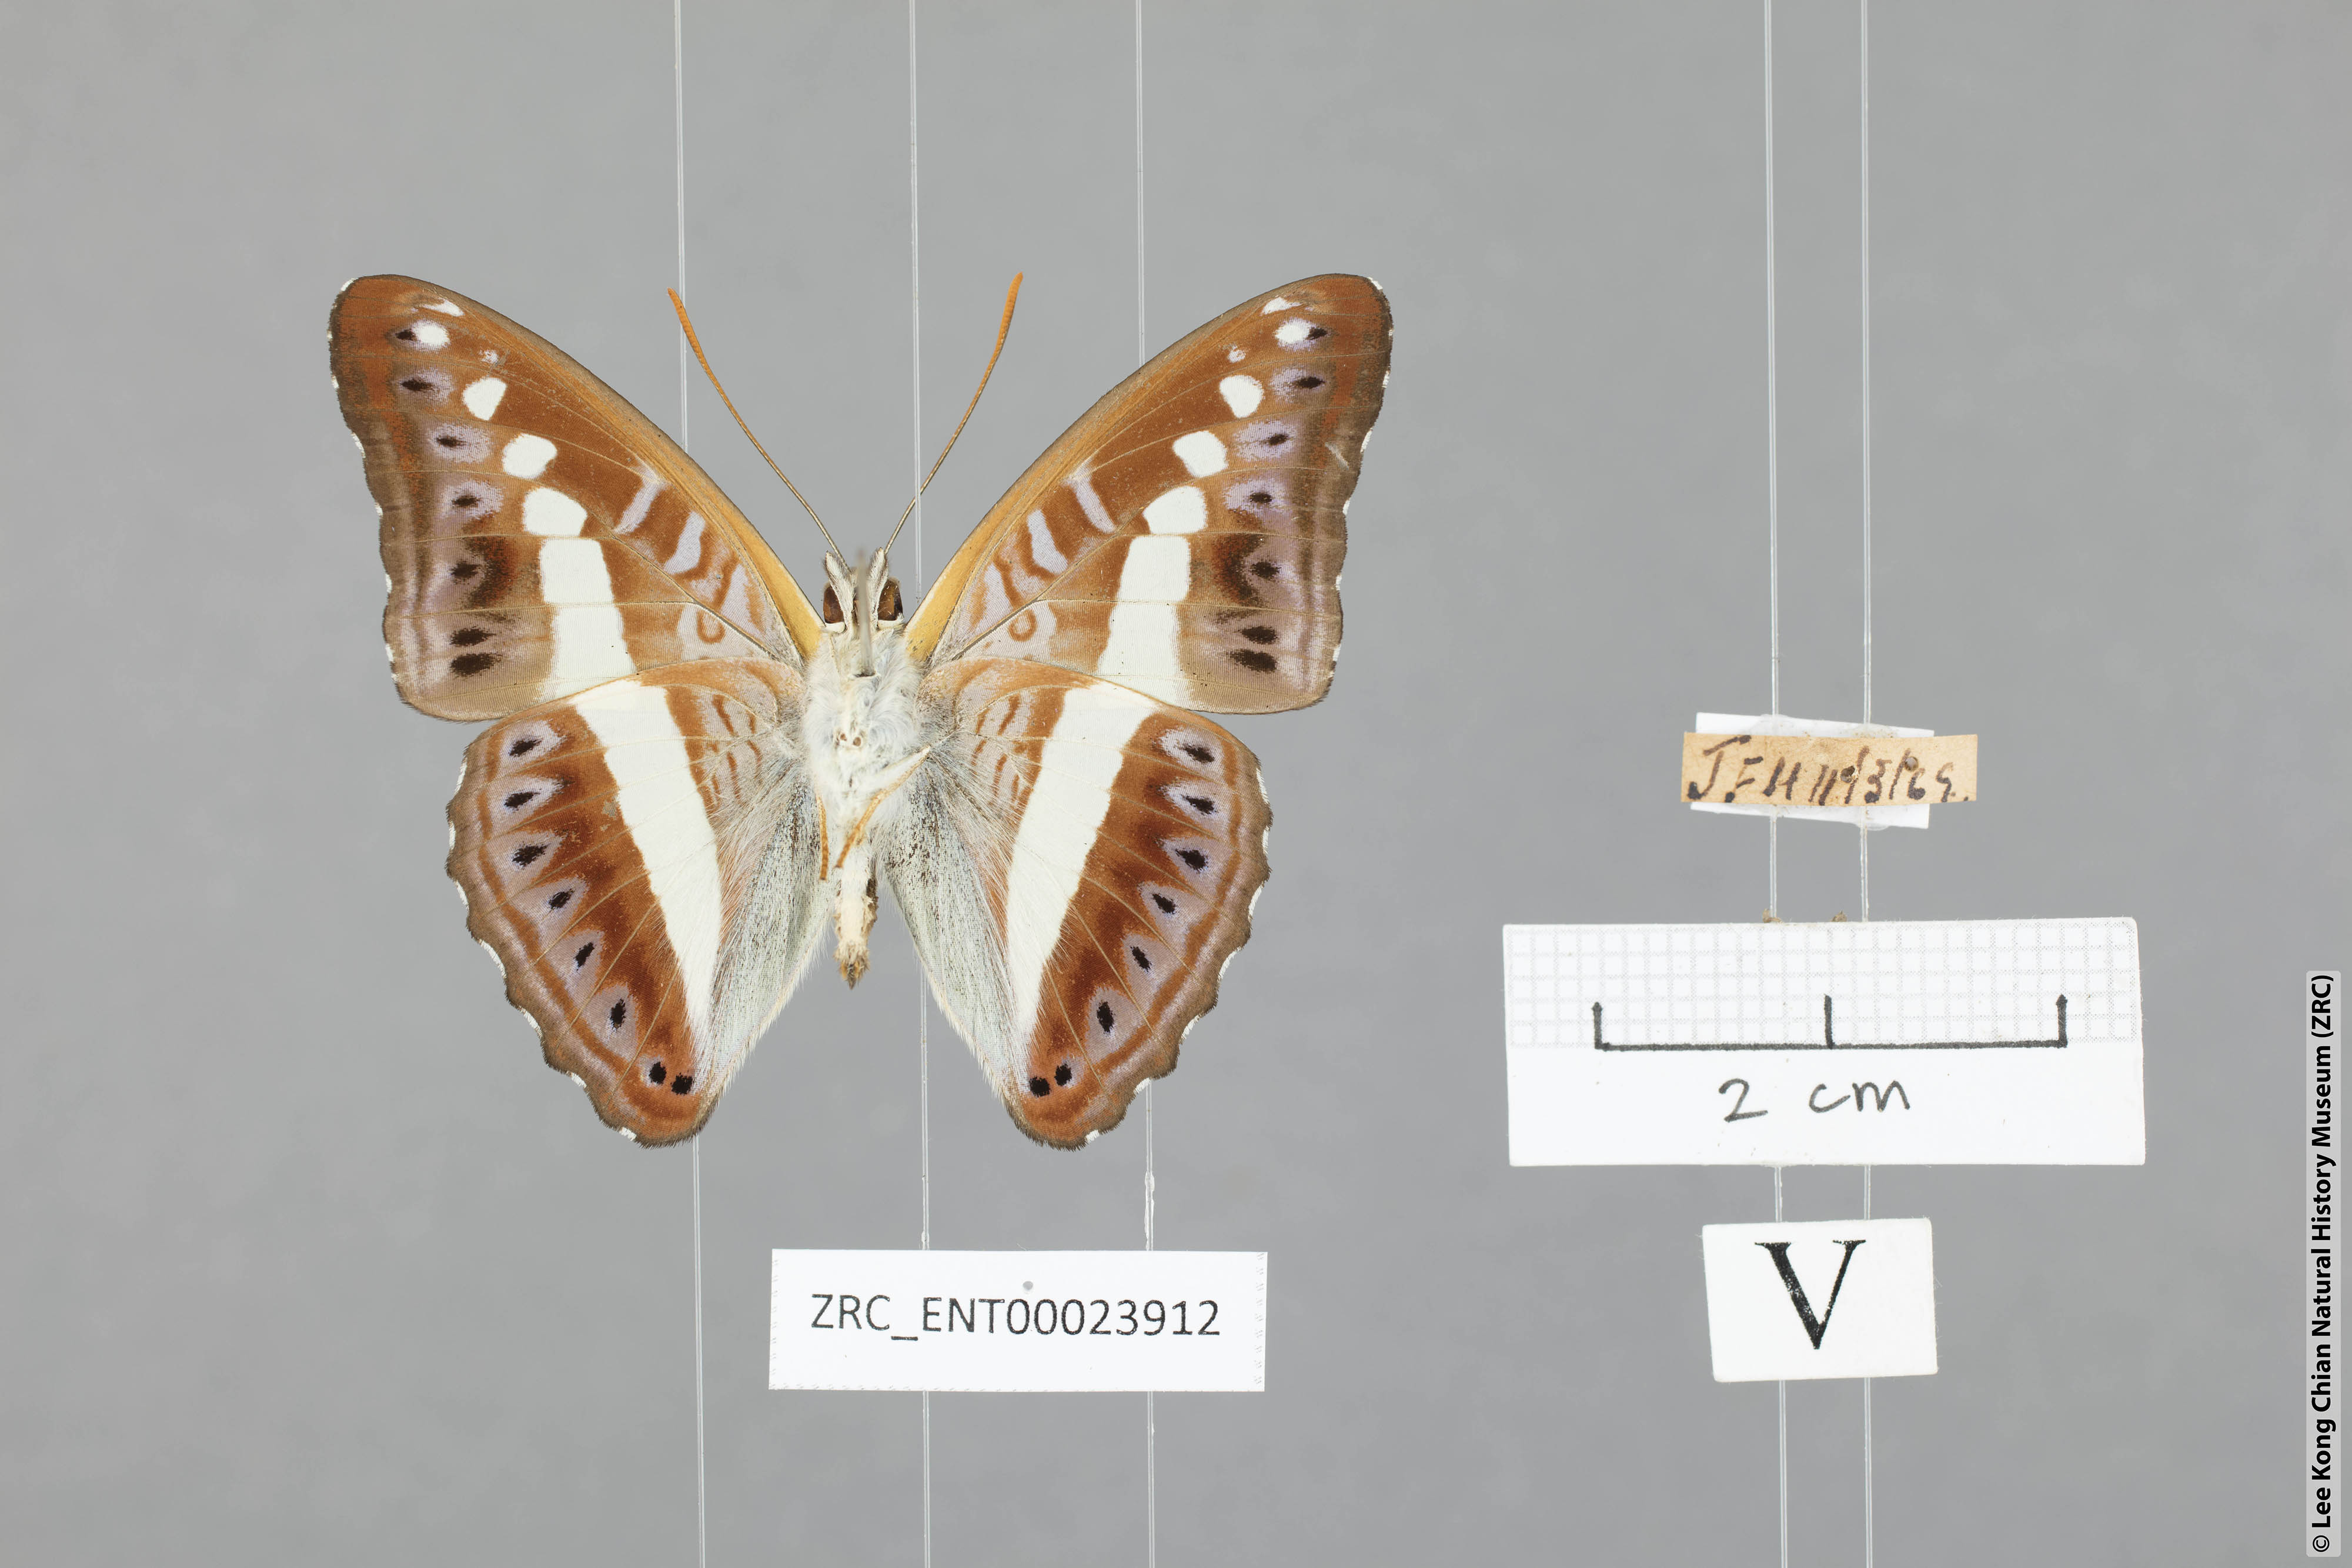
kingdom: Animalia
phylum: Arthropoda
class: Insecta
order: Lepidoptera
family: Nymphalidae
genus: Limenitis
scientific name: Limenitis Sumalia daraxa
